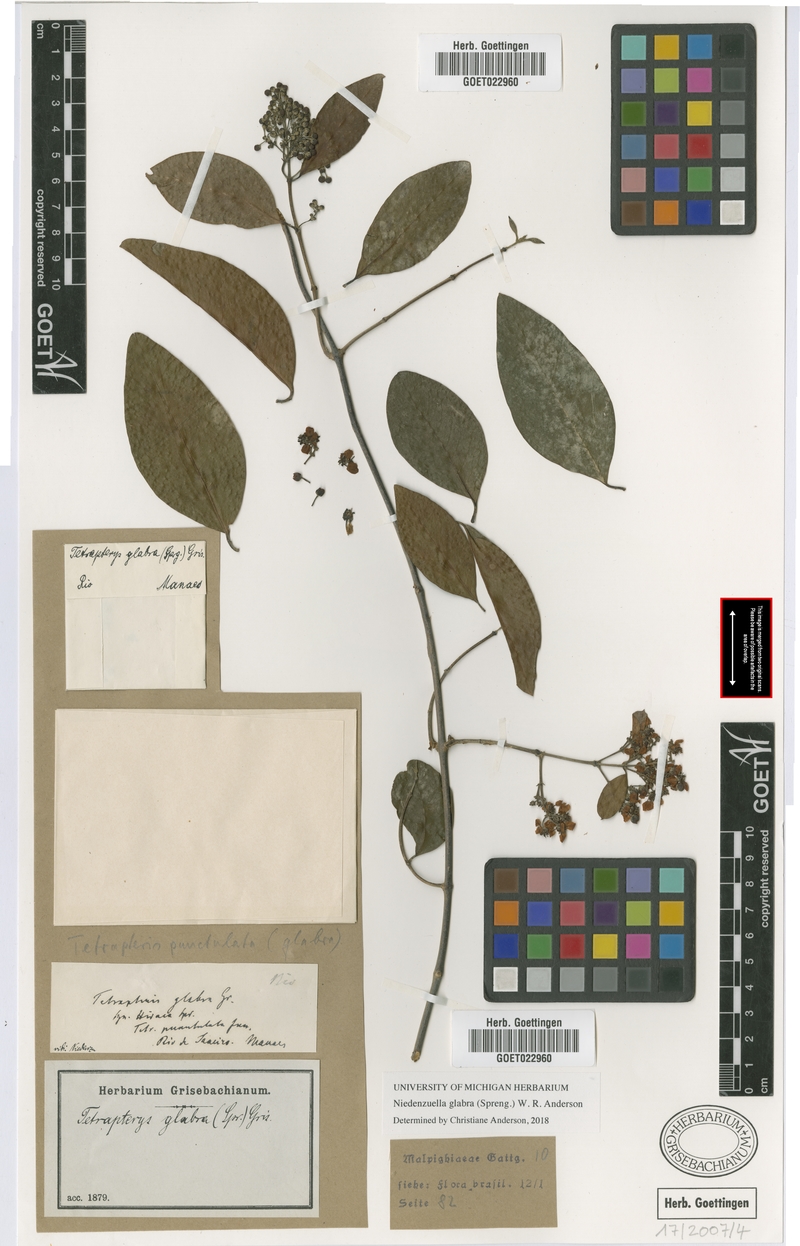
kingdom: Plantae
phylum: Tracheophyta
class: Magnoliopsida
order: Malpighiales
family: Malpighiaceae
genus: Niedenzuella
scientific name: Niedenzuella glabra
